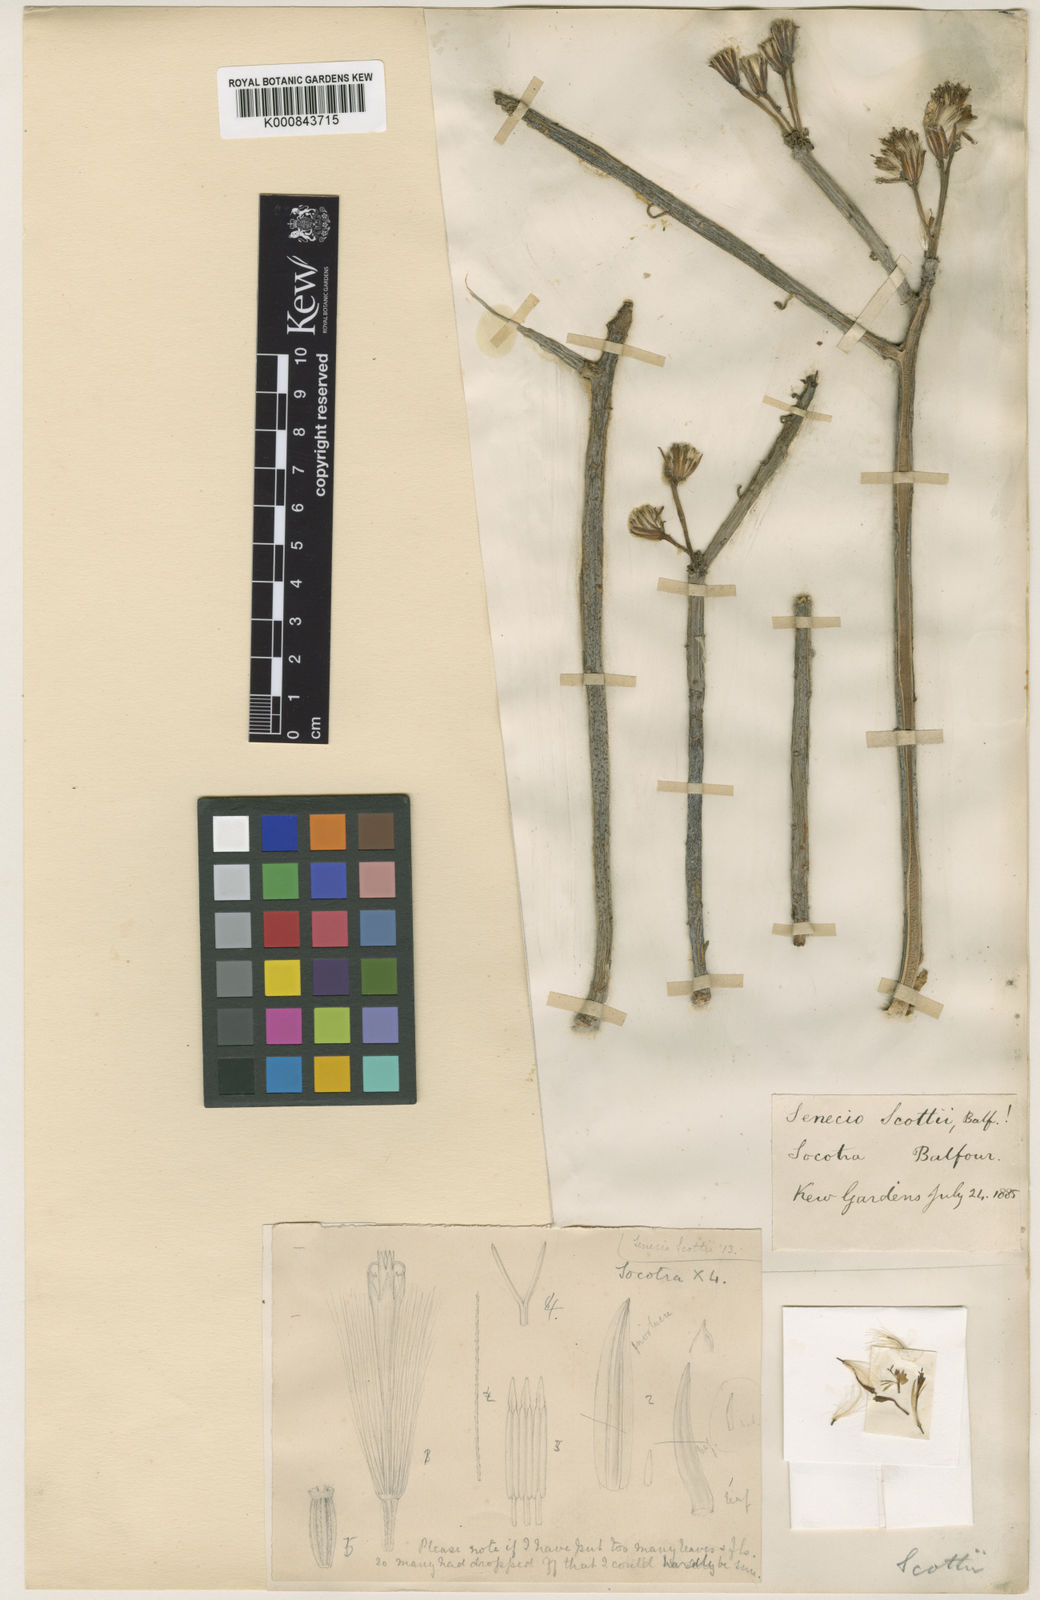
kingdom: Plantae
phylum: Tracheophyta
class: Magnoliopsida
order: Asterales
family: Asteraceae
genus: Curio
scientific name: Curio talinoides
